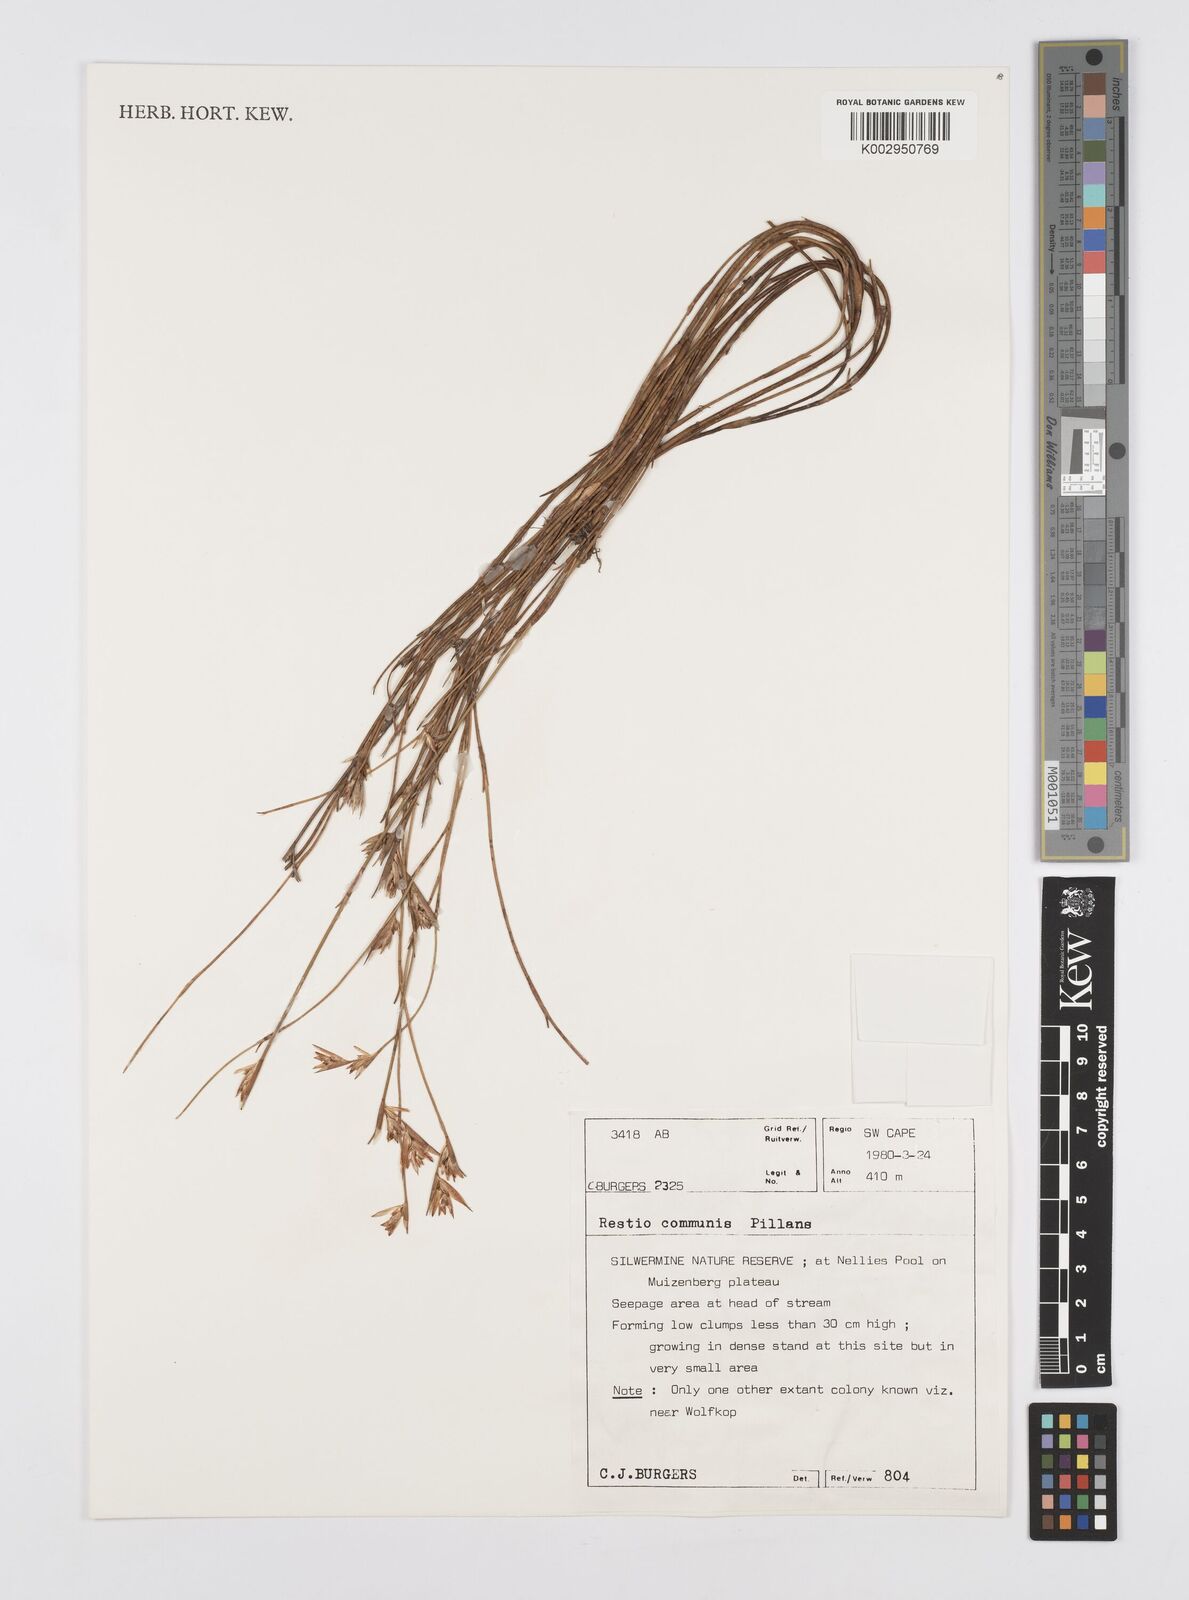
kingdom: Plantae
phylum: Tracheophyta
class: Liliopsida
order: Poales
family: Restionaceae
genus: Restio
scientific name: Restio communis
